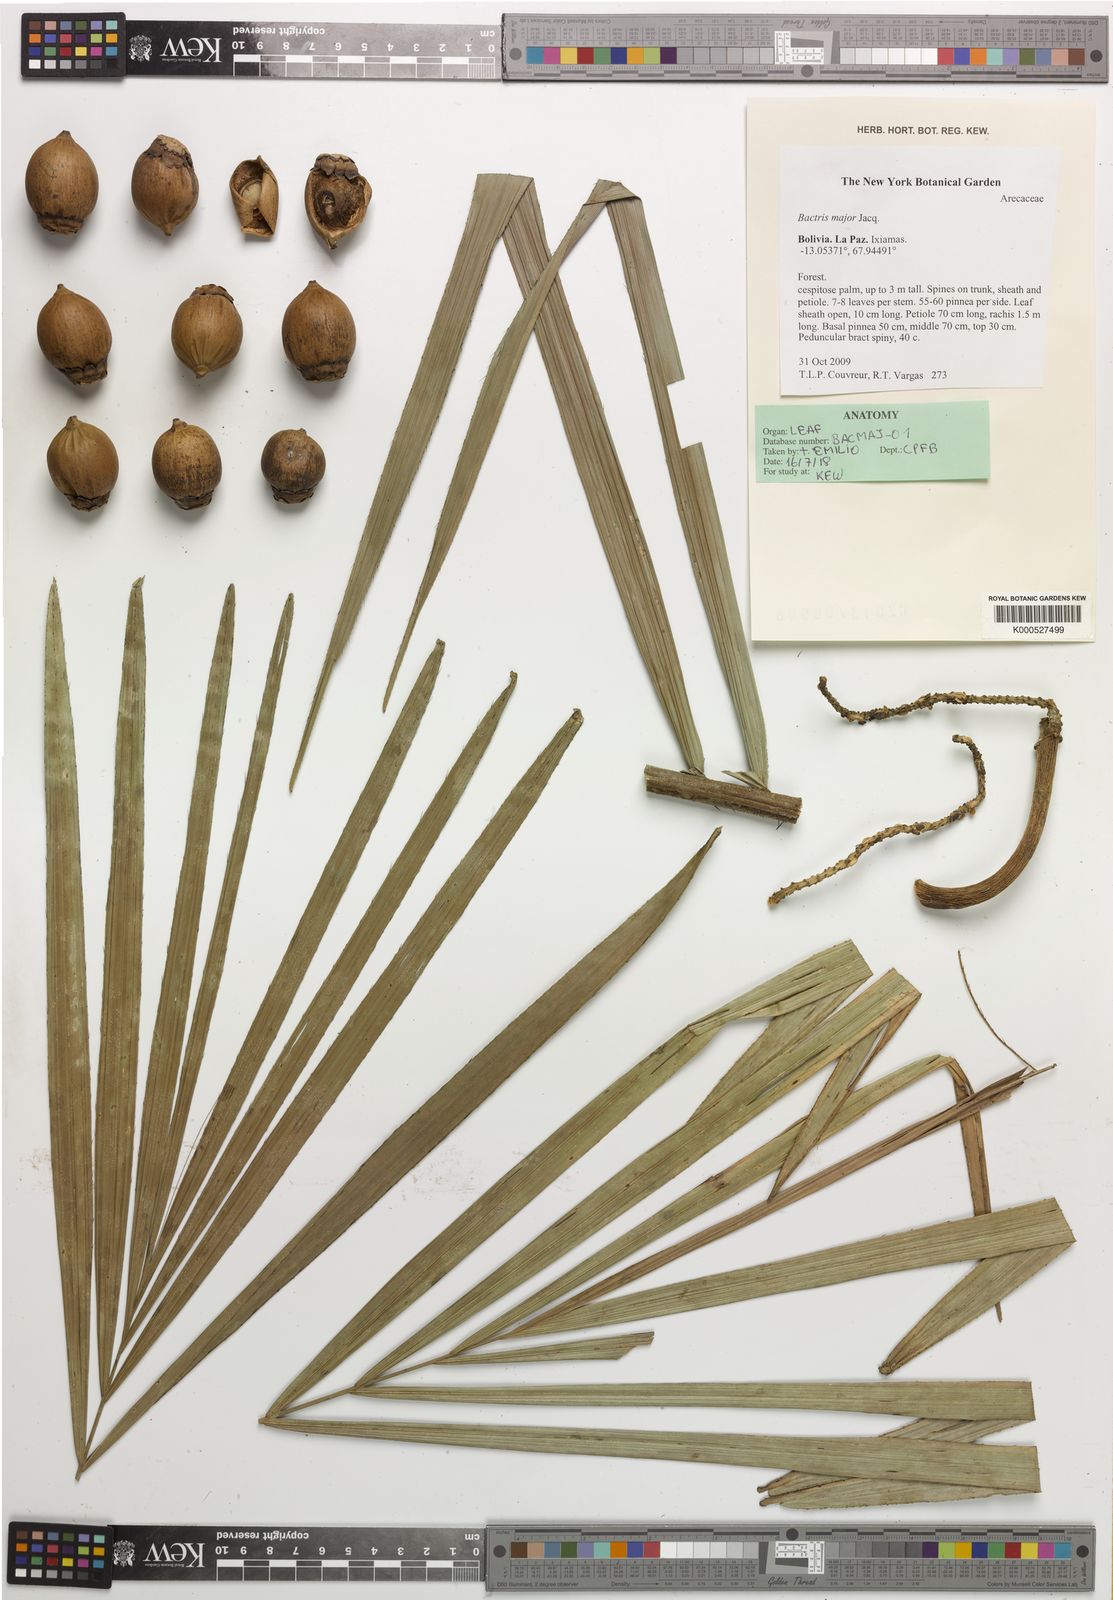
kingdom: Plantae
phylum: Tracheophyta
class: Liliopsida
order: Arecales
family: Arecaceae
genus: Bactris
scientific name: Bactris major
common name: Beach palm
